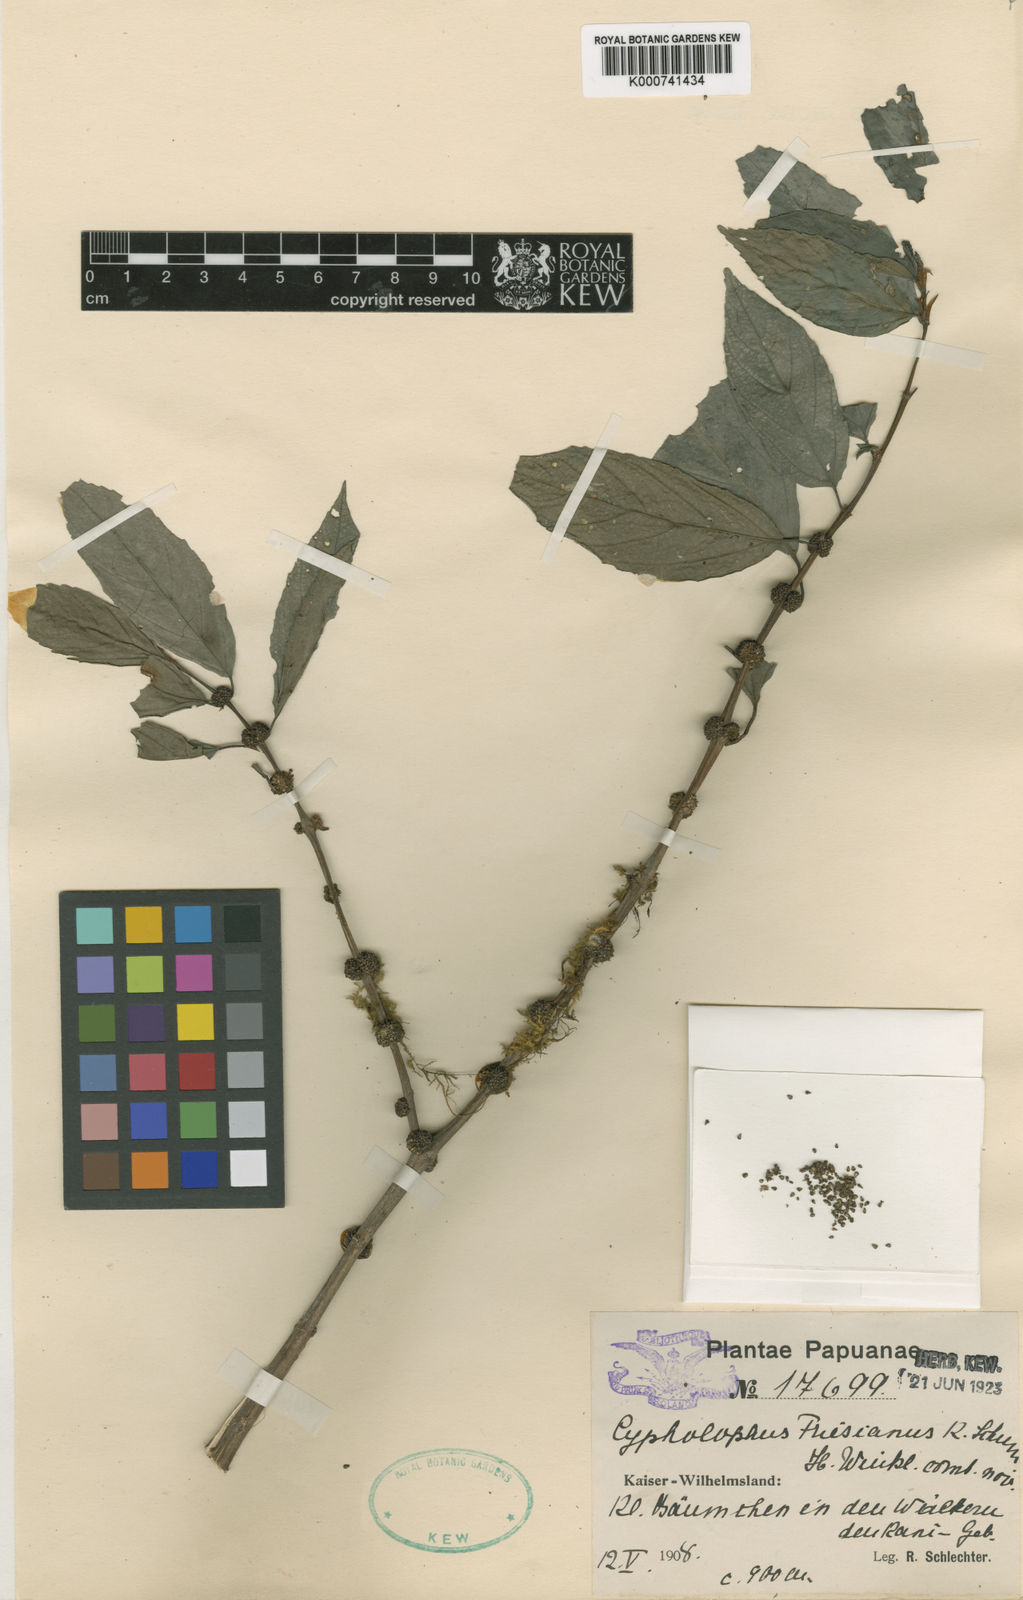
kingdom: Plantae
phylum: Tracheophyta
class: Magnoliopsida
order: Rosales
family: Urticaceae
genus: Cypholophus
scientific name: Cypholophus friesianus
